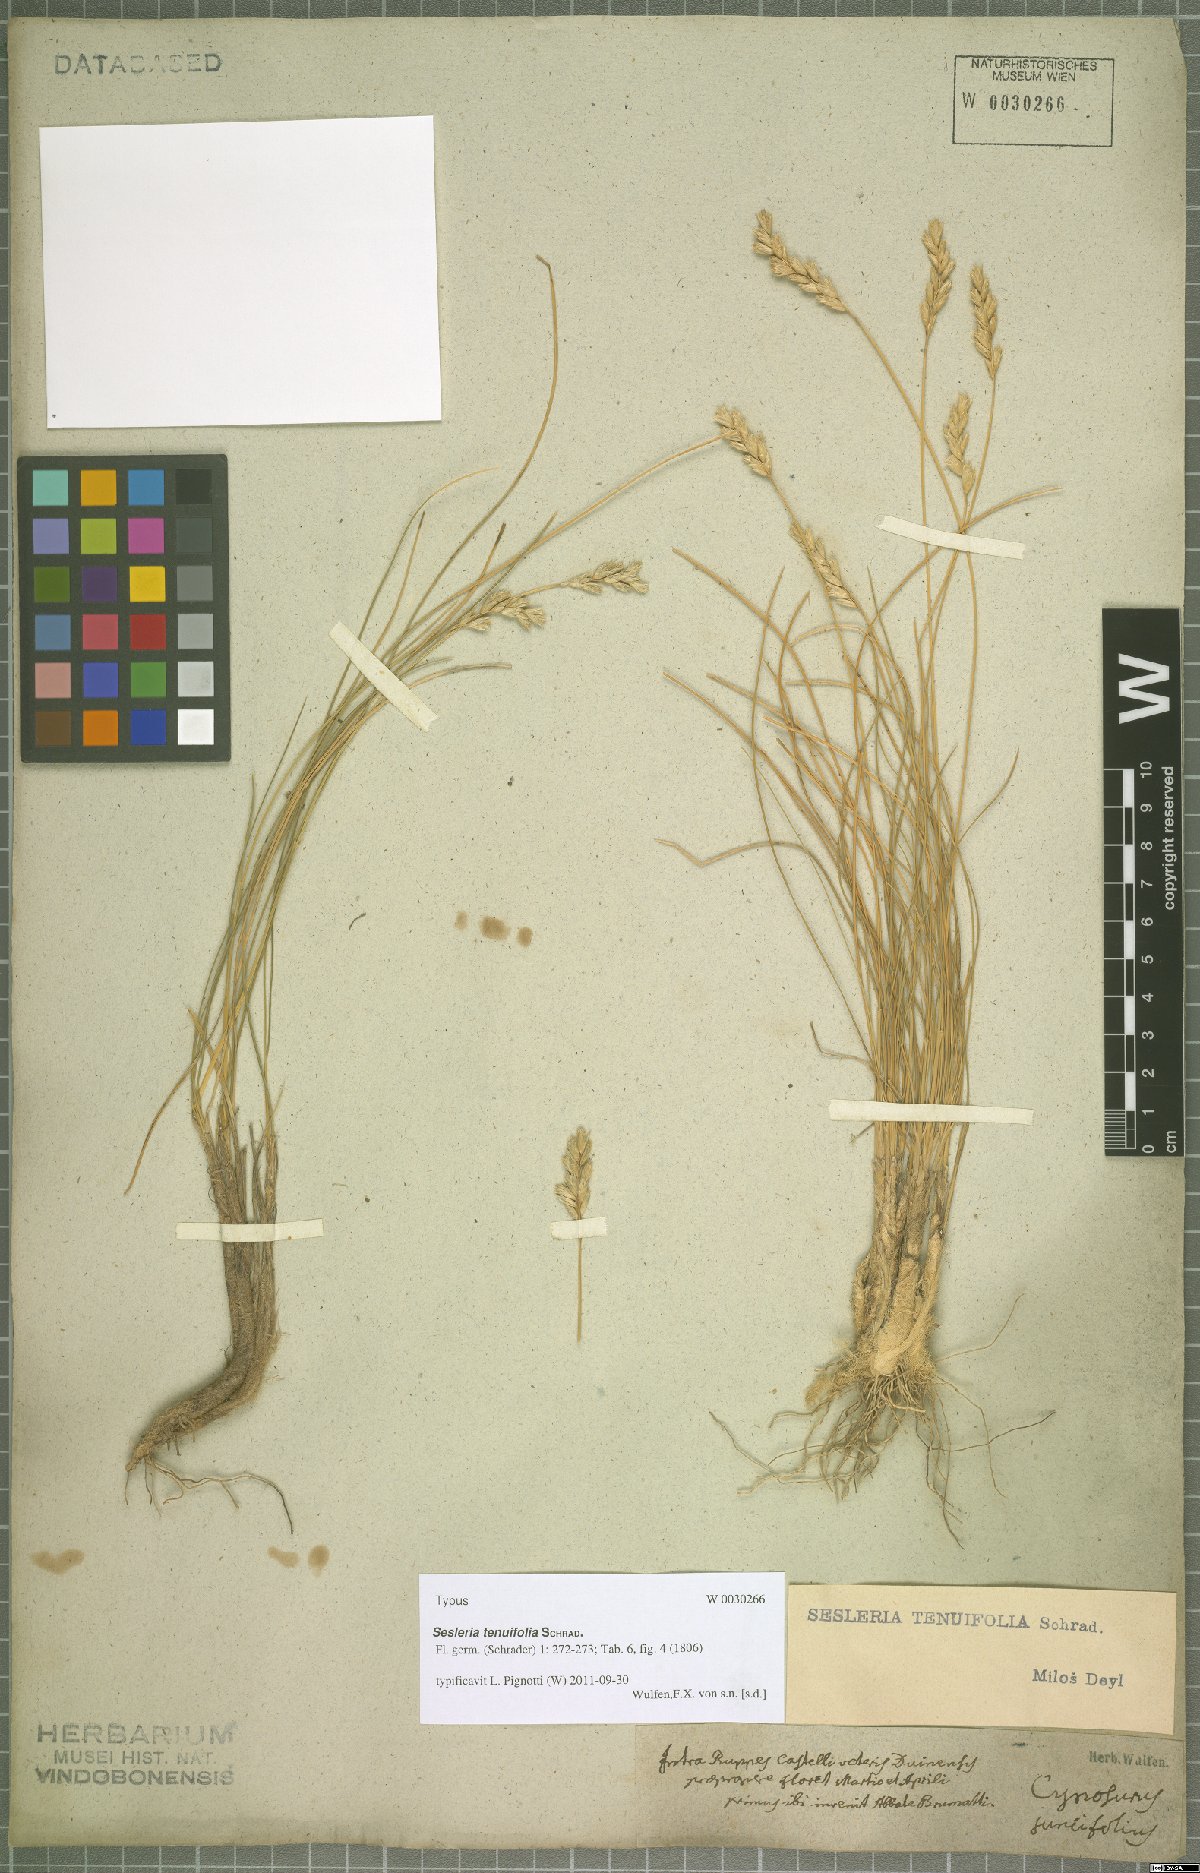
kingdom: Plantae
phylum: Tracheophyta
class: Liliopsida
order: Poales
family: Poaceae
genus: Sesleria
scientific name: Sesleria juncifolia
